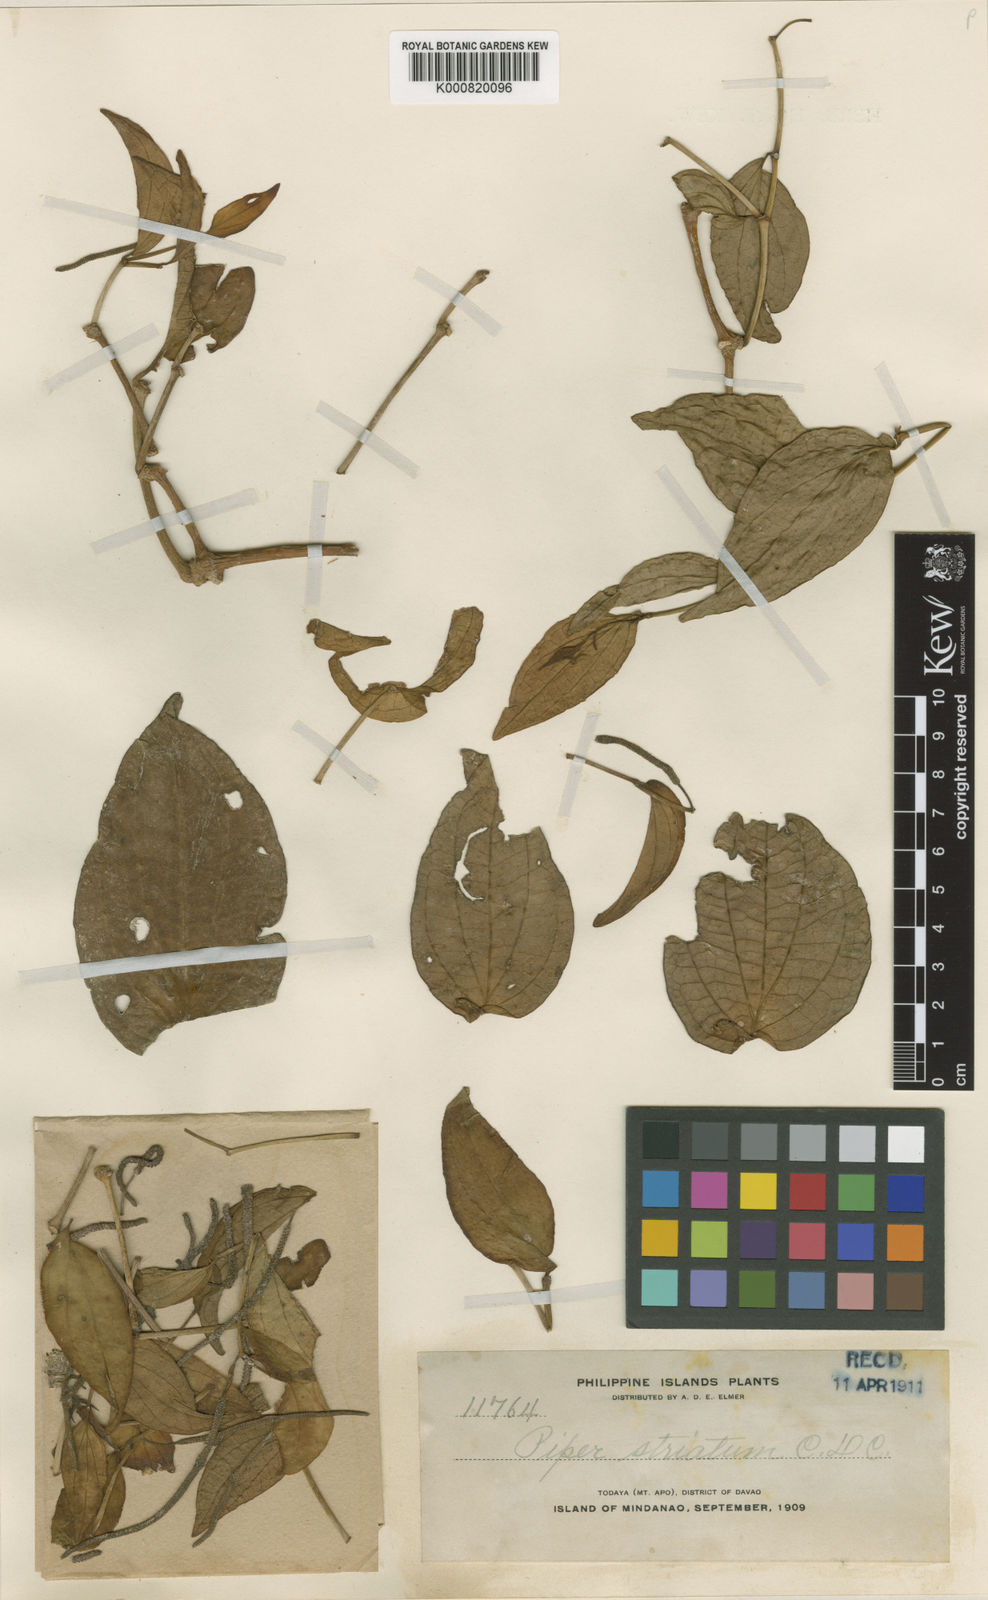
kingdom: Plantae
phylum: Tracheophyta
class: Magnoliopsida
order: Piperales
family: Piperaceae
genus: Piper
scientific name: Piper varibracteum
